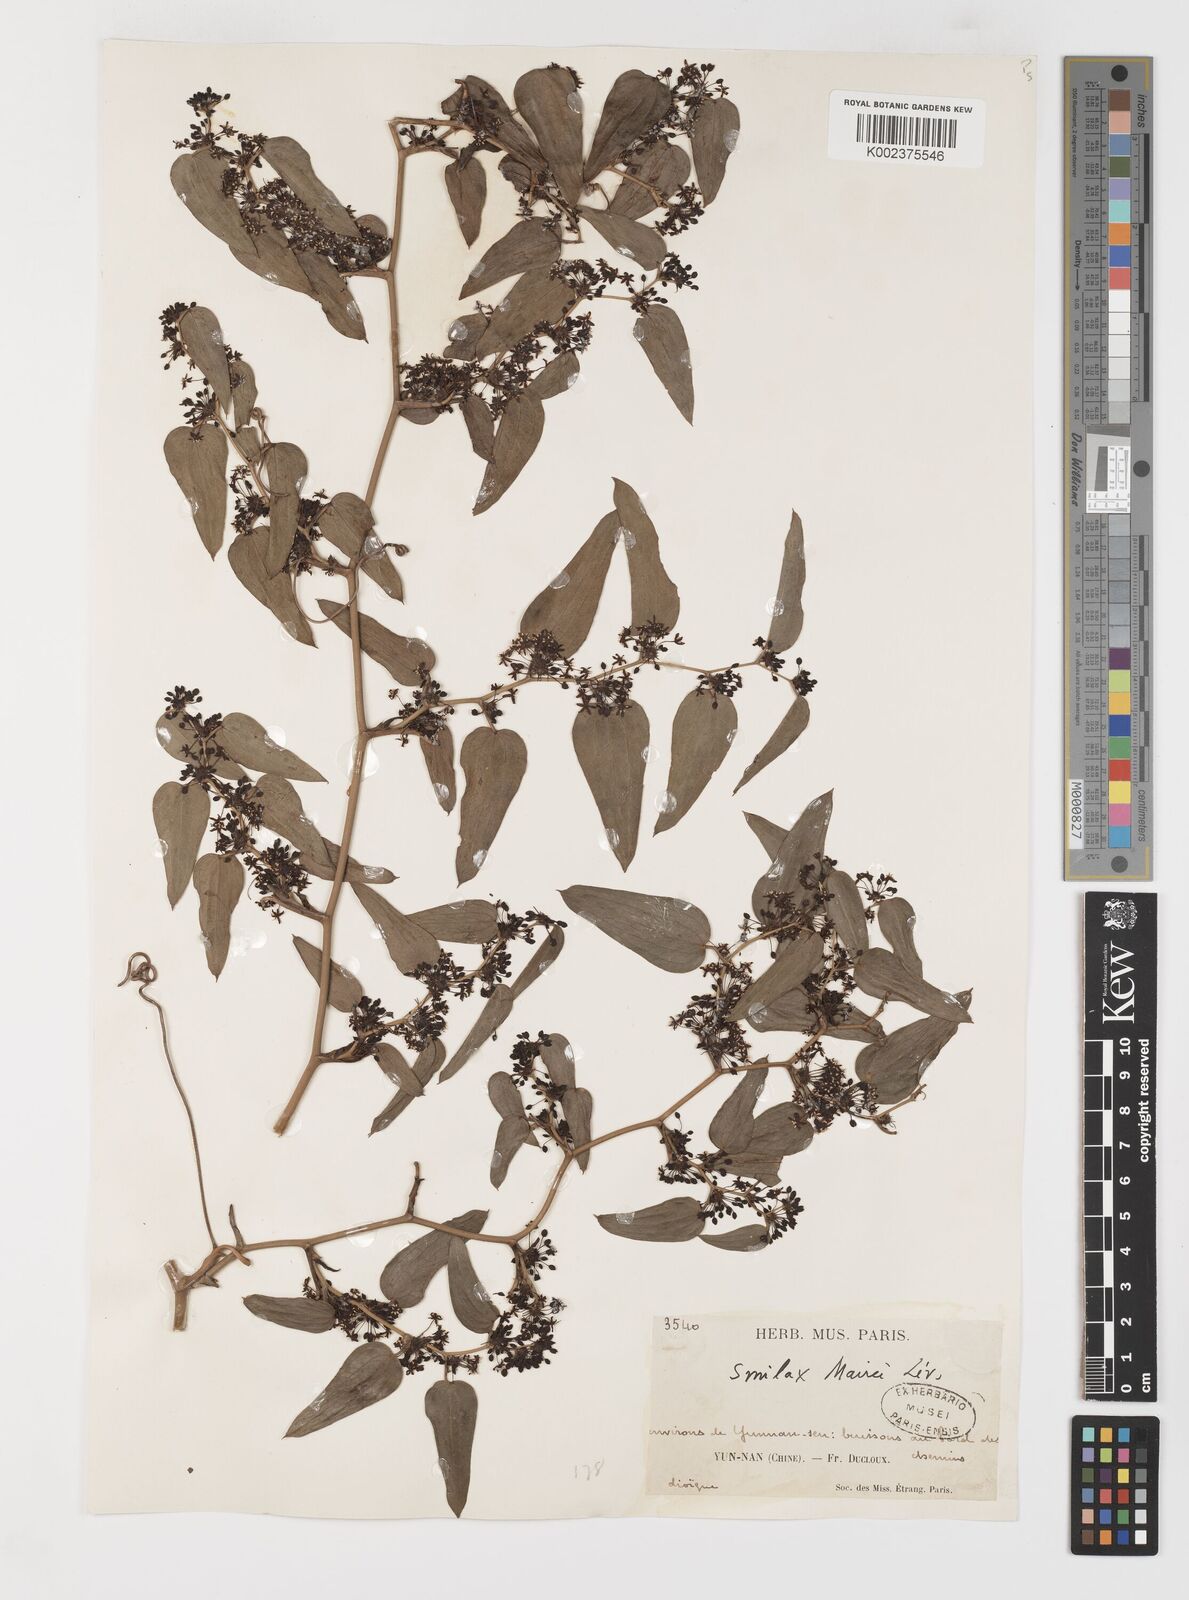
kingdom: Plantae
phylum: Tracheophyta
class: Liliopsida
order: Liliales
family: Smilacaceae
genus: Smilax
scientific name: Smilax lanceifolia
